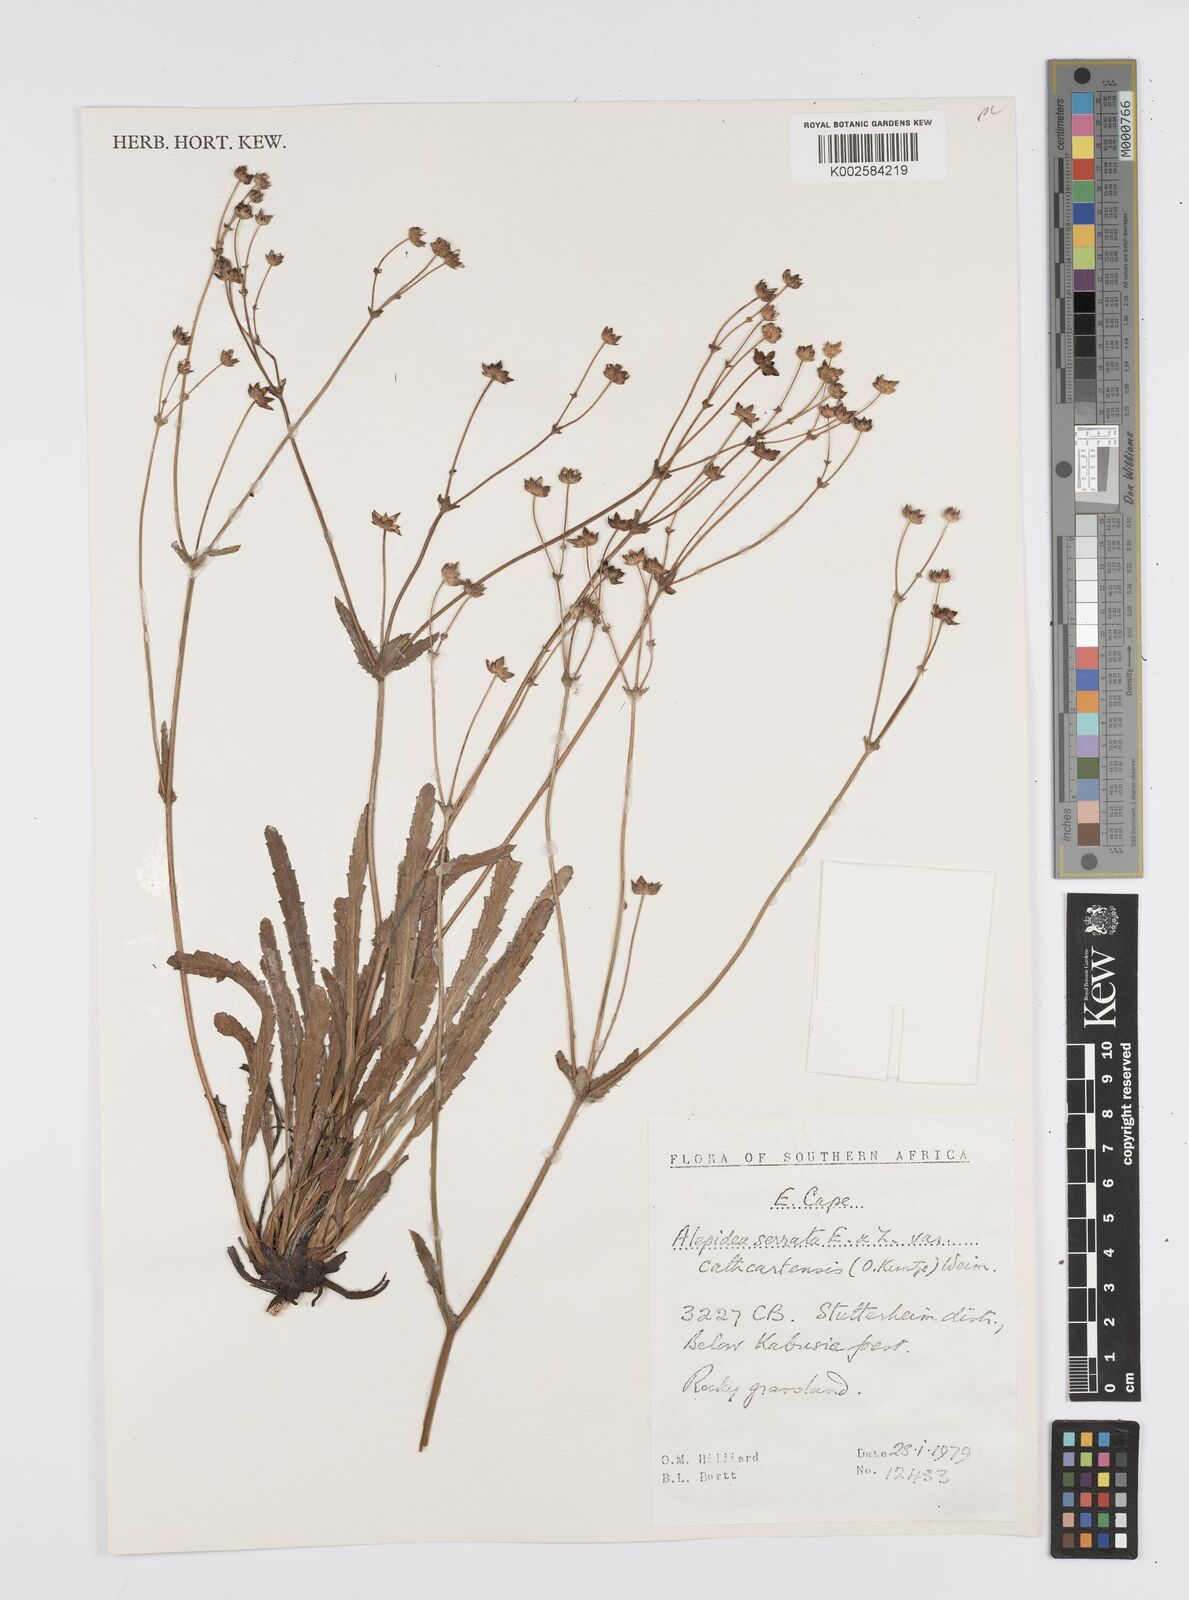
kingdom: Plantae
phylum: Tracheophyta
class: Magnoliopsida
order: Apiales
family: Apiaceae
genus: Alepidea
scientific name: Alepidea serrata
